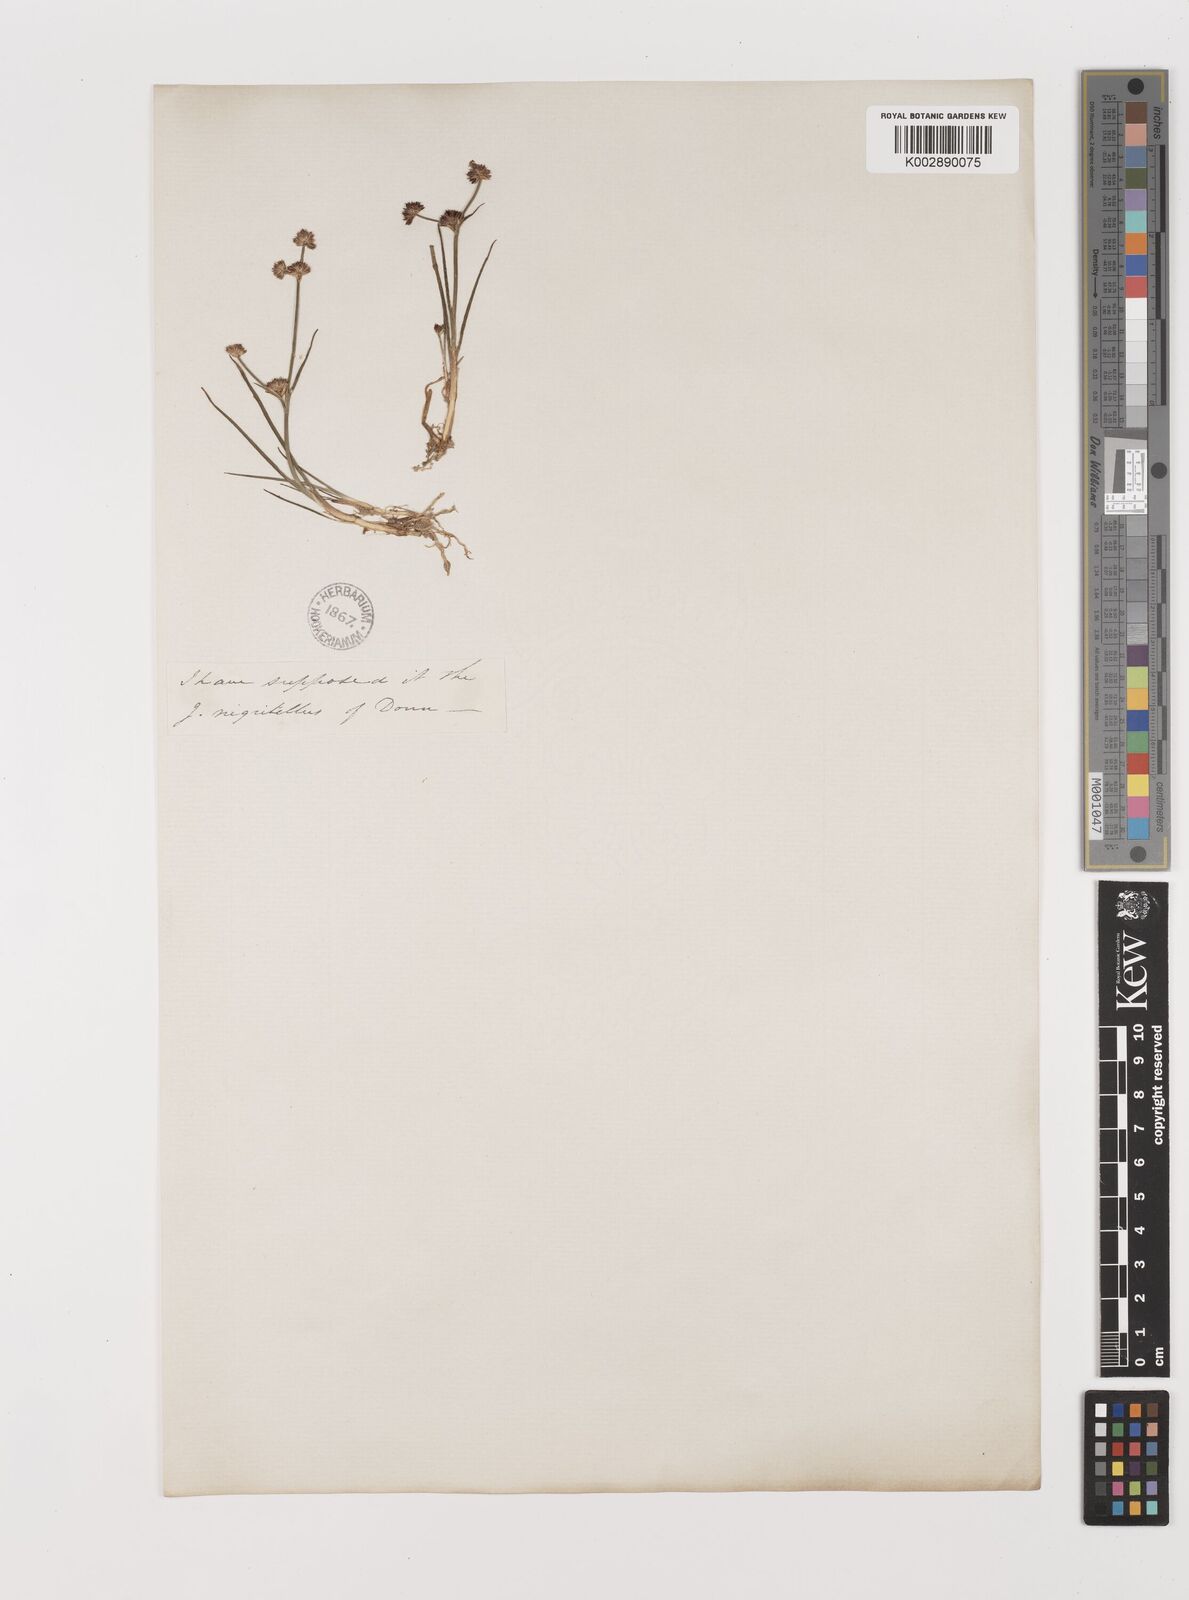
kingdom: Plantae
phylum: Tracheophyta
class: Liliopsida
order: Poales
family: Juncaceae
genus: Juncus
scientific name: Juncus articulatus
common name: Jointed rush
